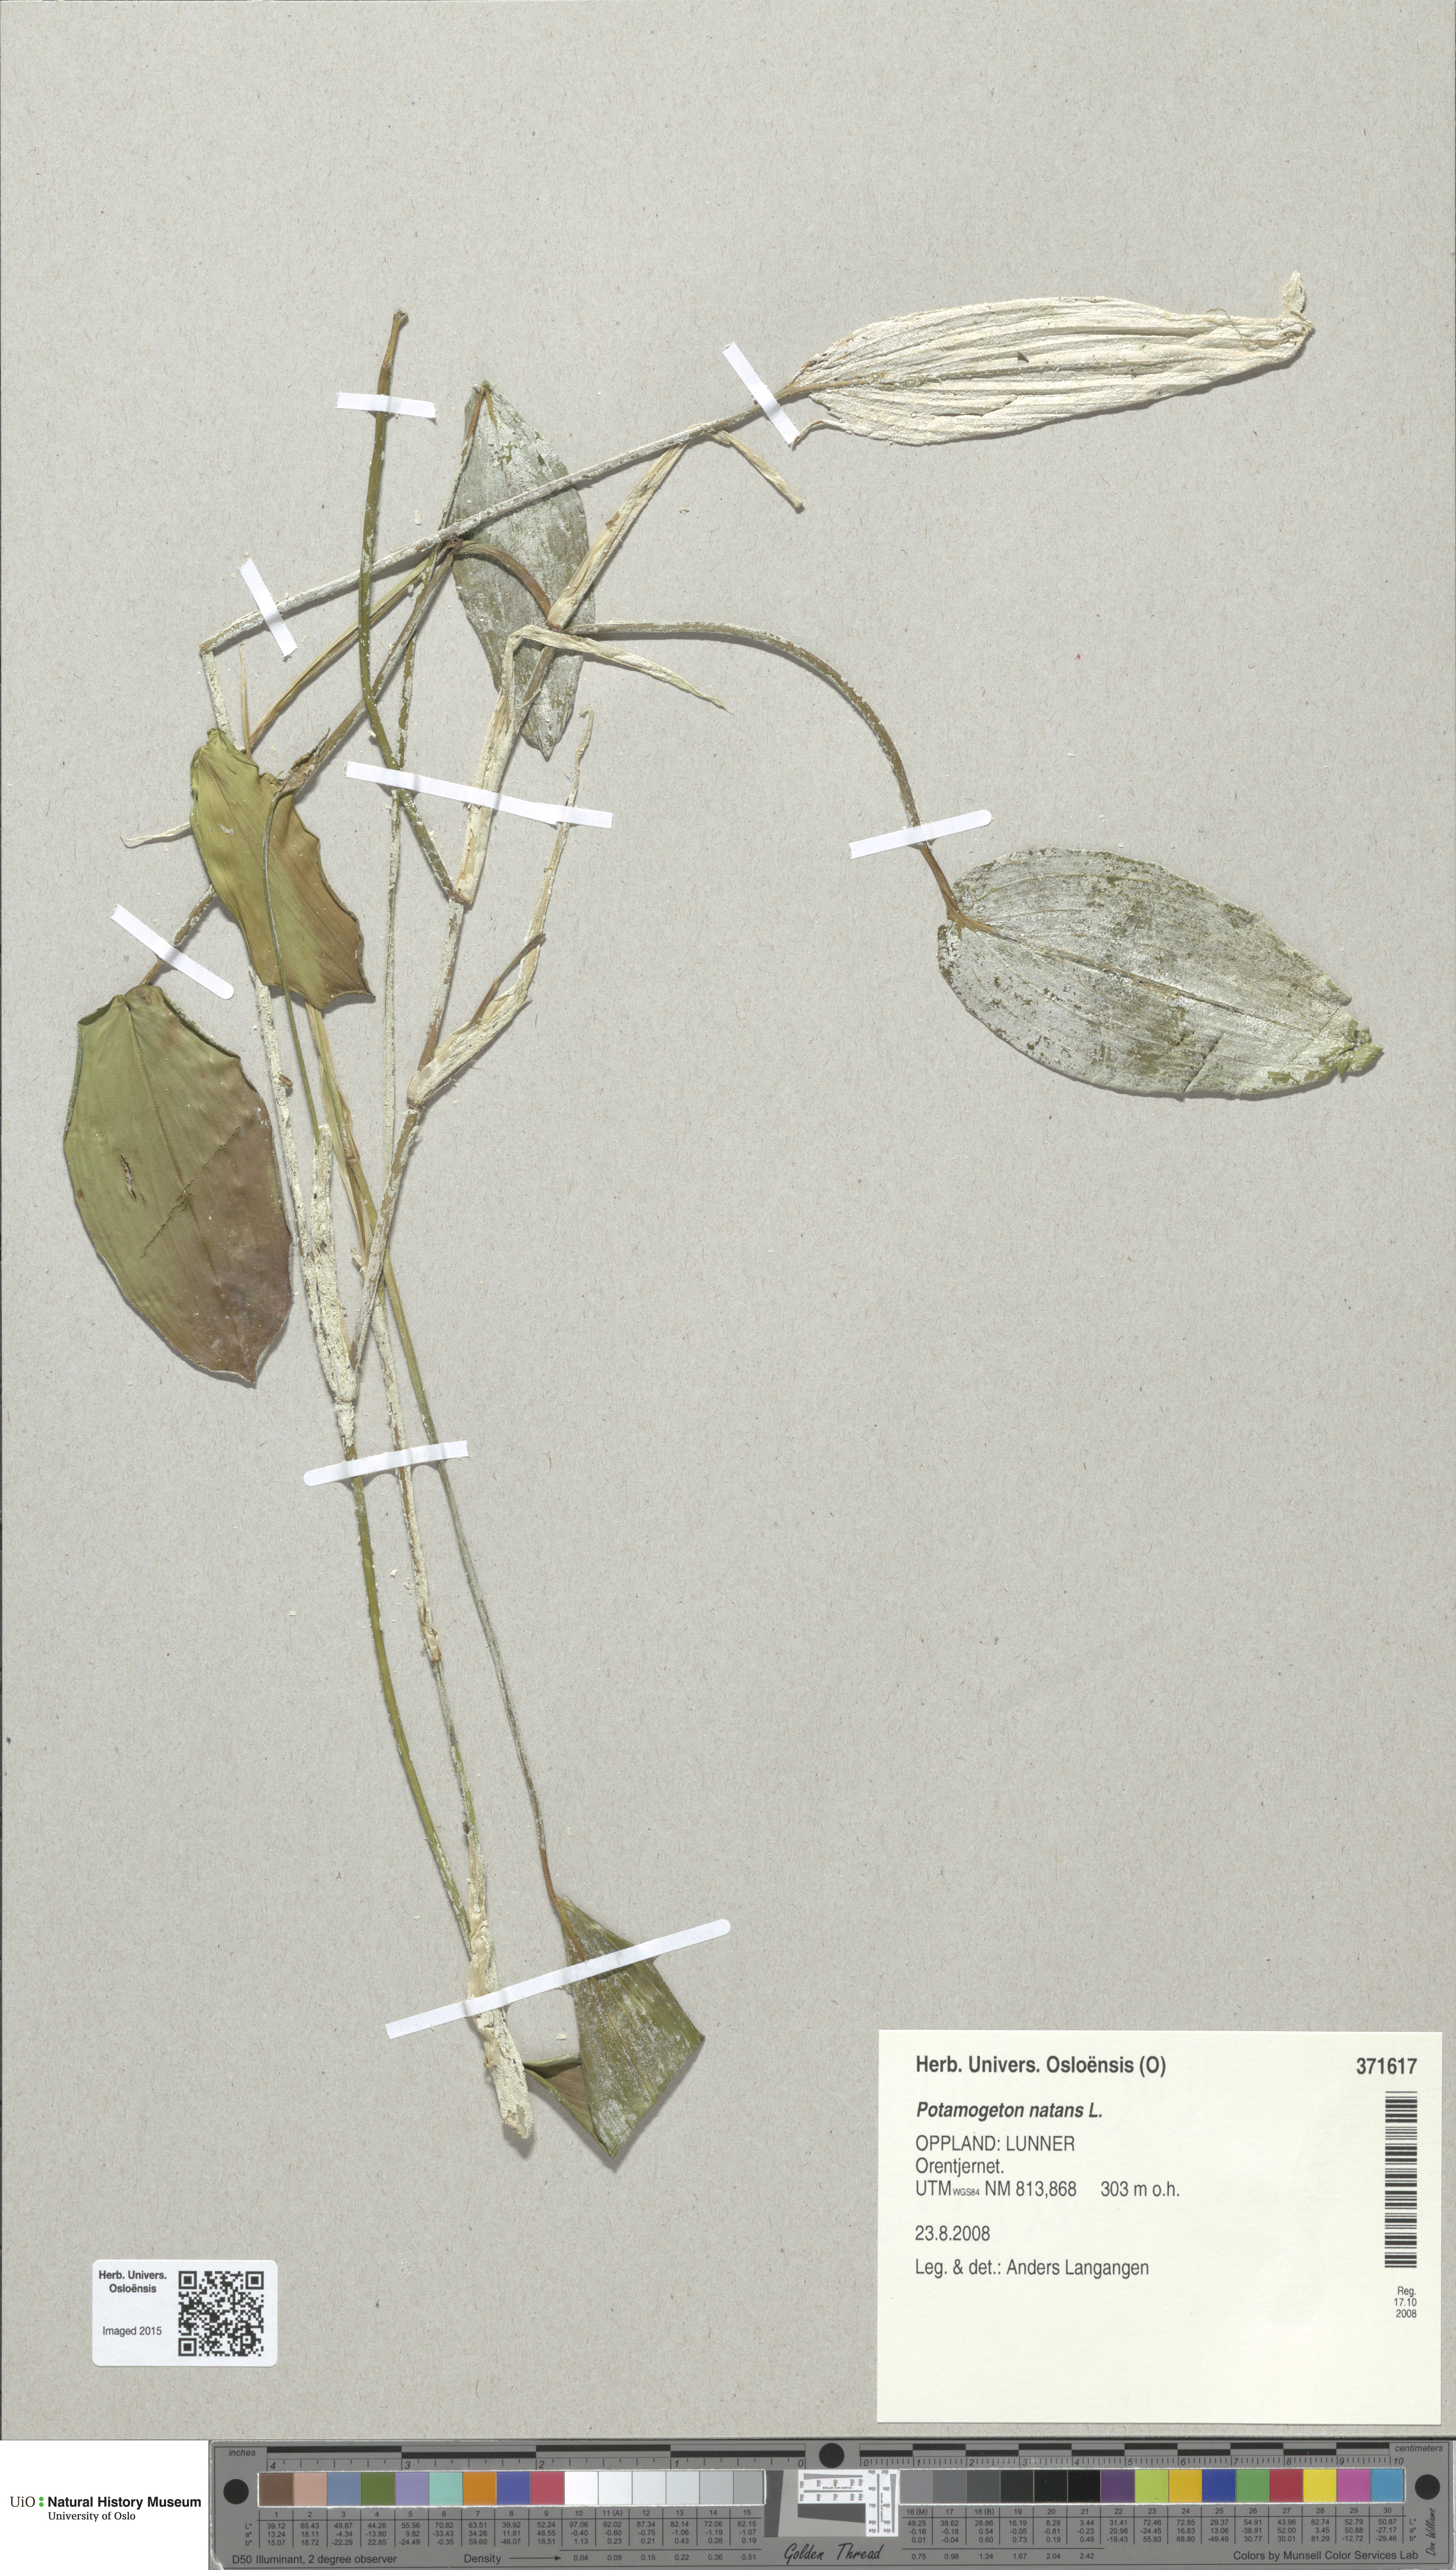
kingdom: Plantae
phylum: Tracheophyta
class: Liliopsida
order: Alismatales
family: Potamogetonaceae
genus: Potamogeton
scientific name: Potamogeton natans
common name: Broad-leaved pondweed
